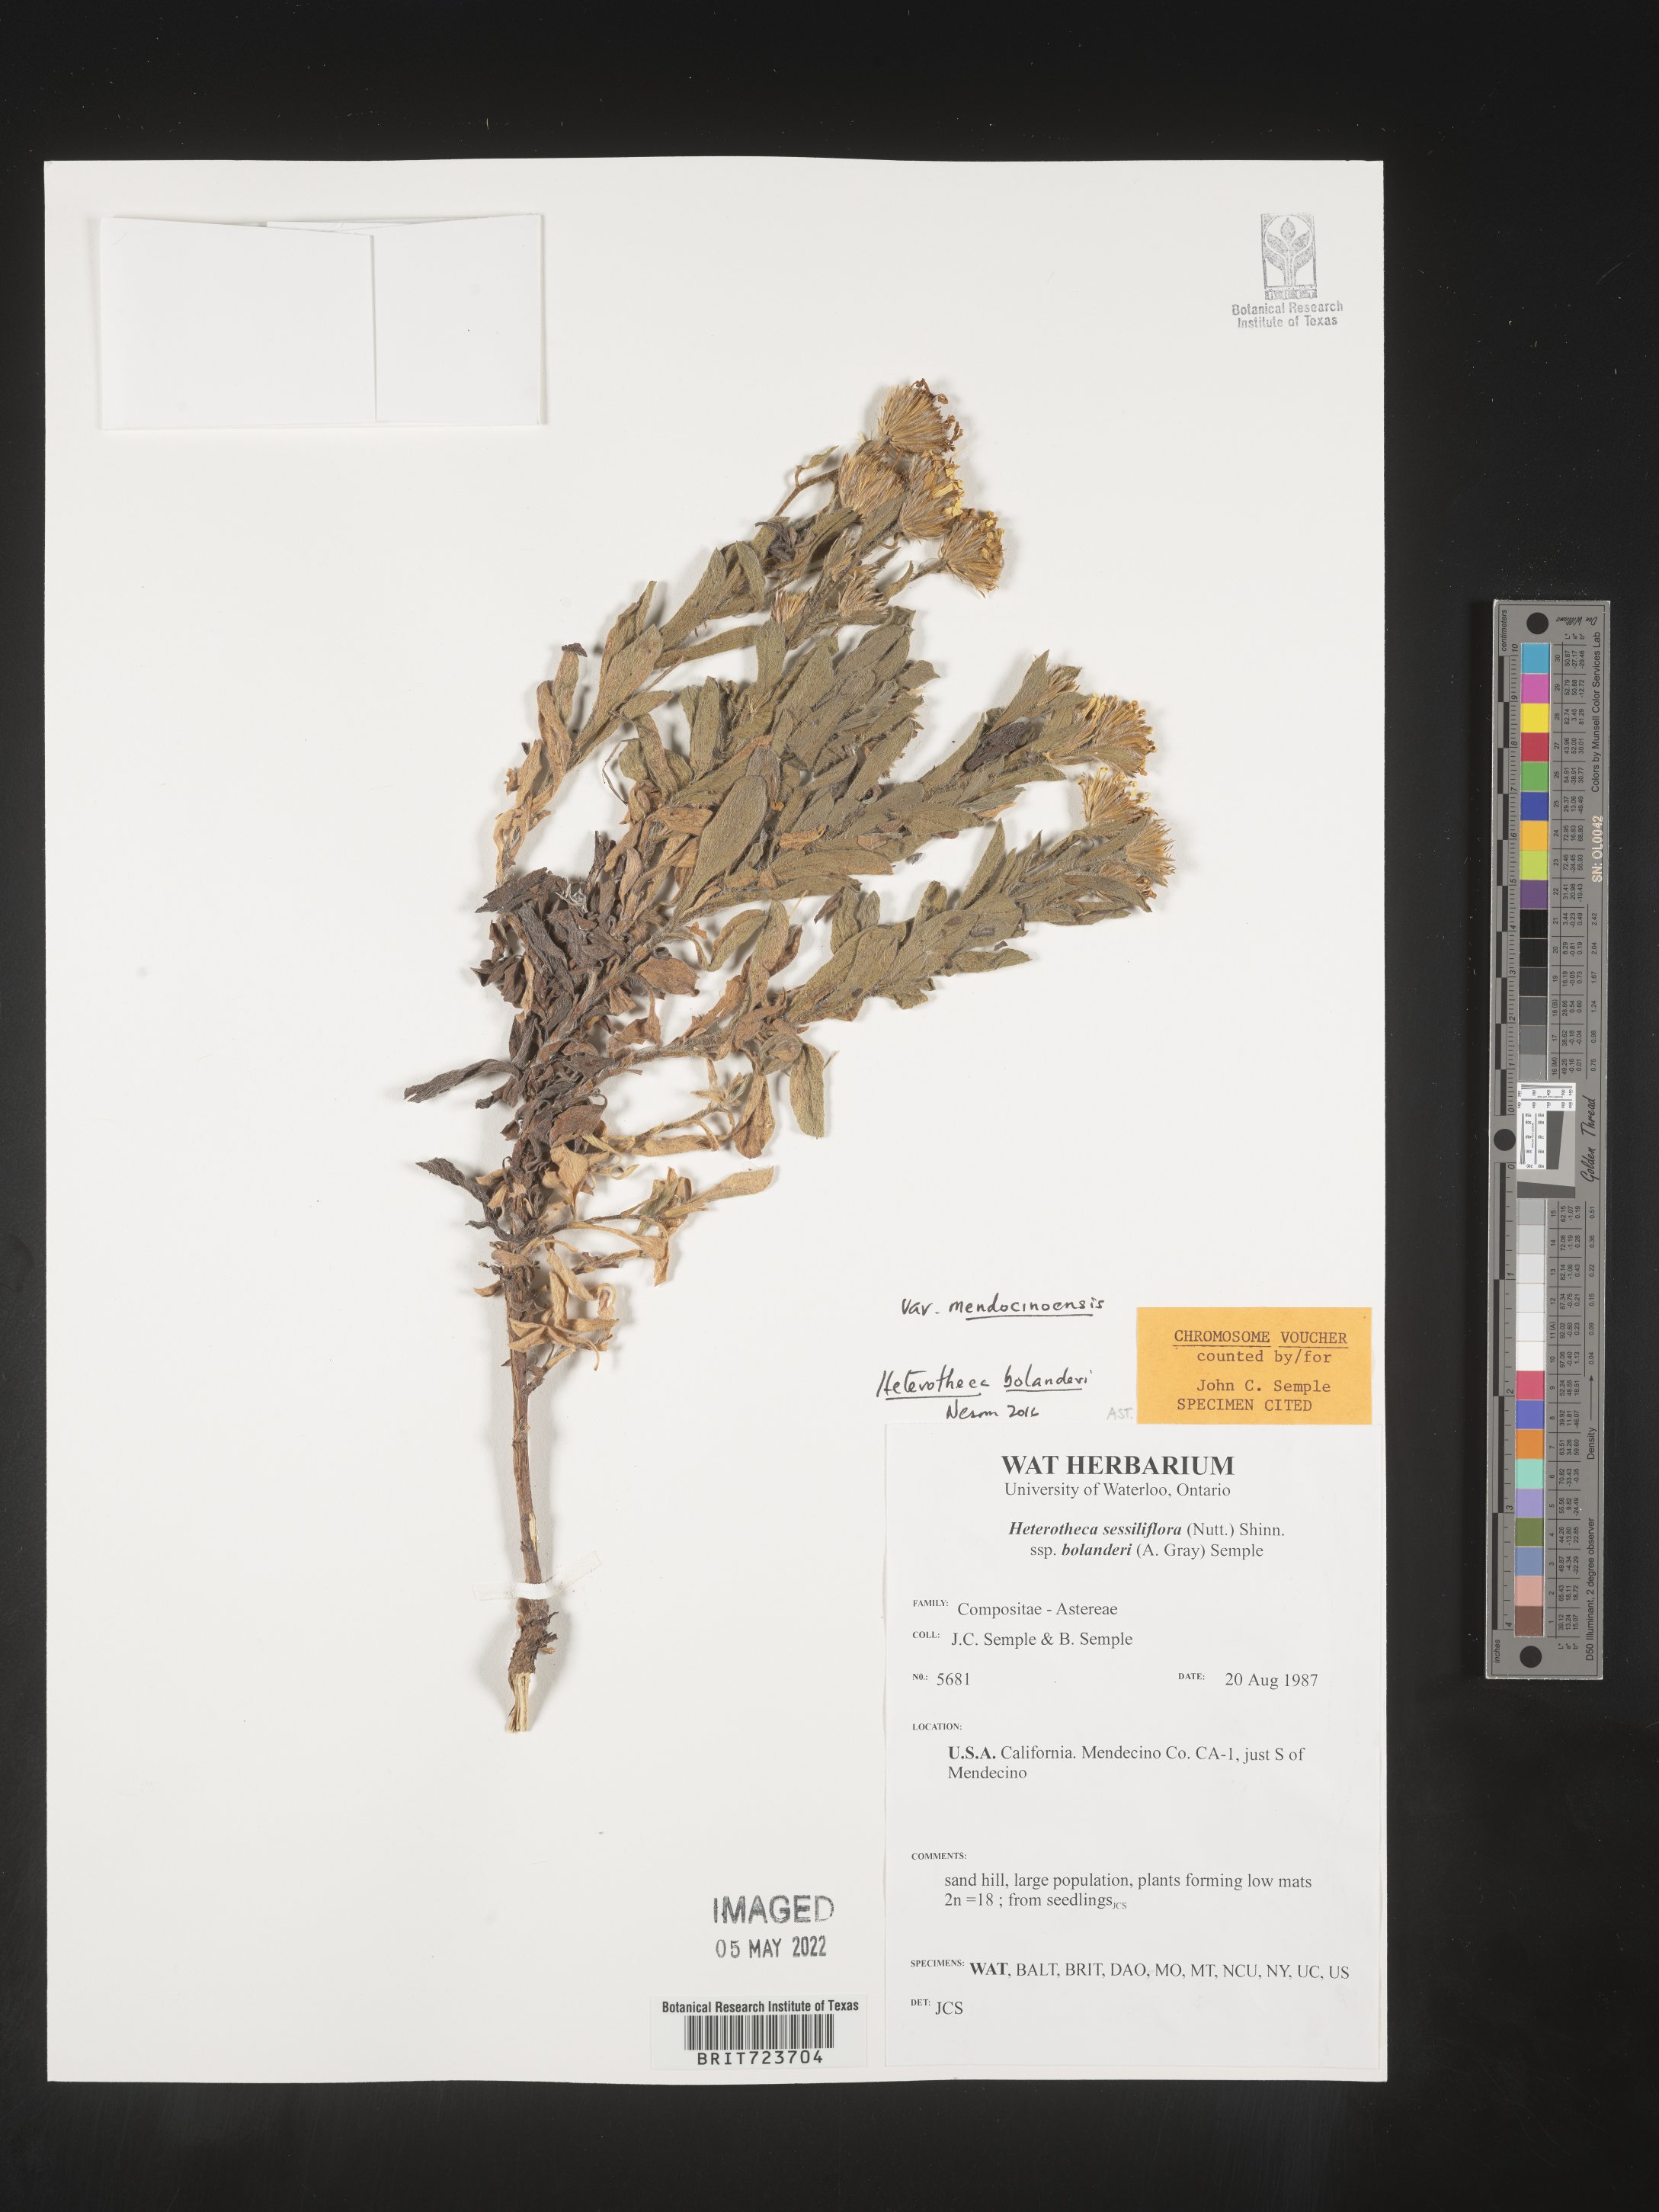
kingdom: Plantae
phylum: Tracheophyta
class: Magnoliopsida
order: Asterales
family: Asteraceae
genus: Heterotheca
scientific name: Heterotheca bolanderi
